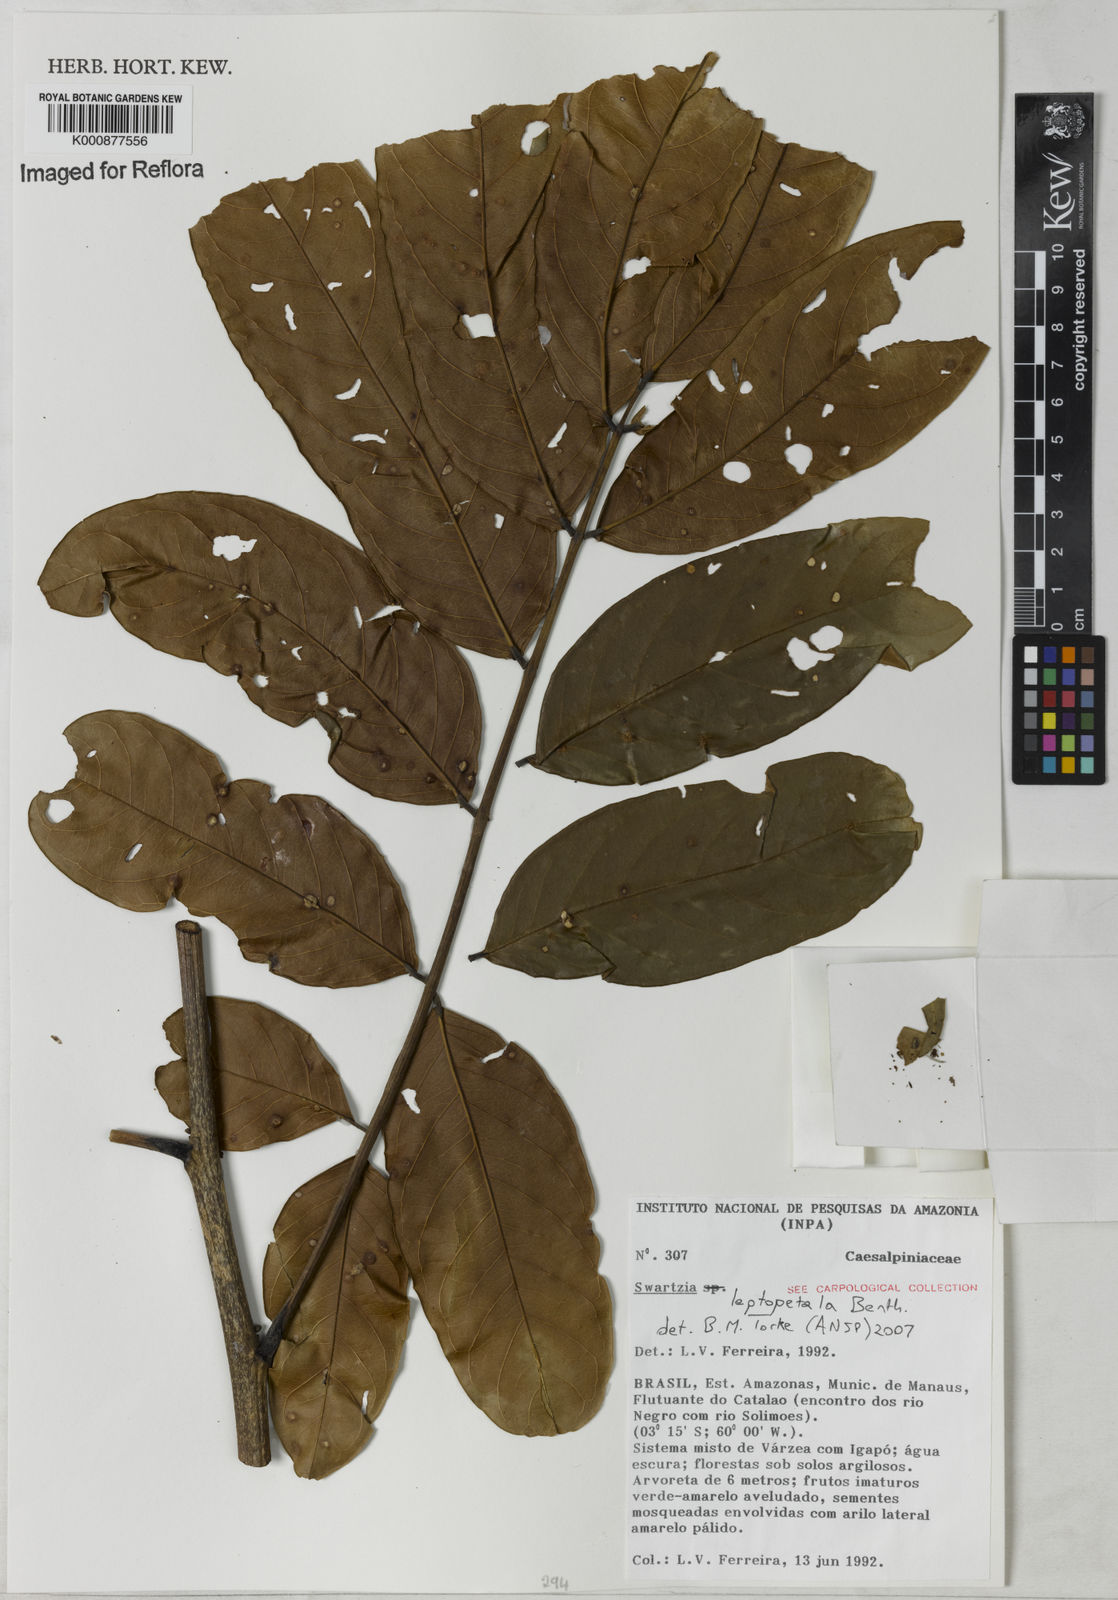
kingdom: Plantae
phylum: Tracheophyta
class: Magnoliopsida
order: Fabales
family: Fabaceae
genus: Swartzia
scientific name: Swartzia leptopetala
